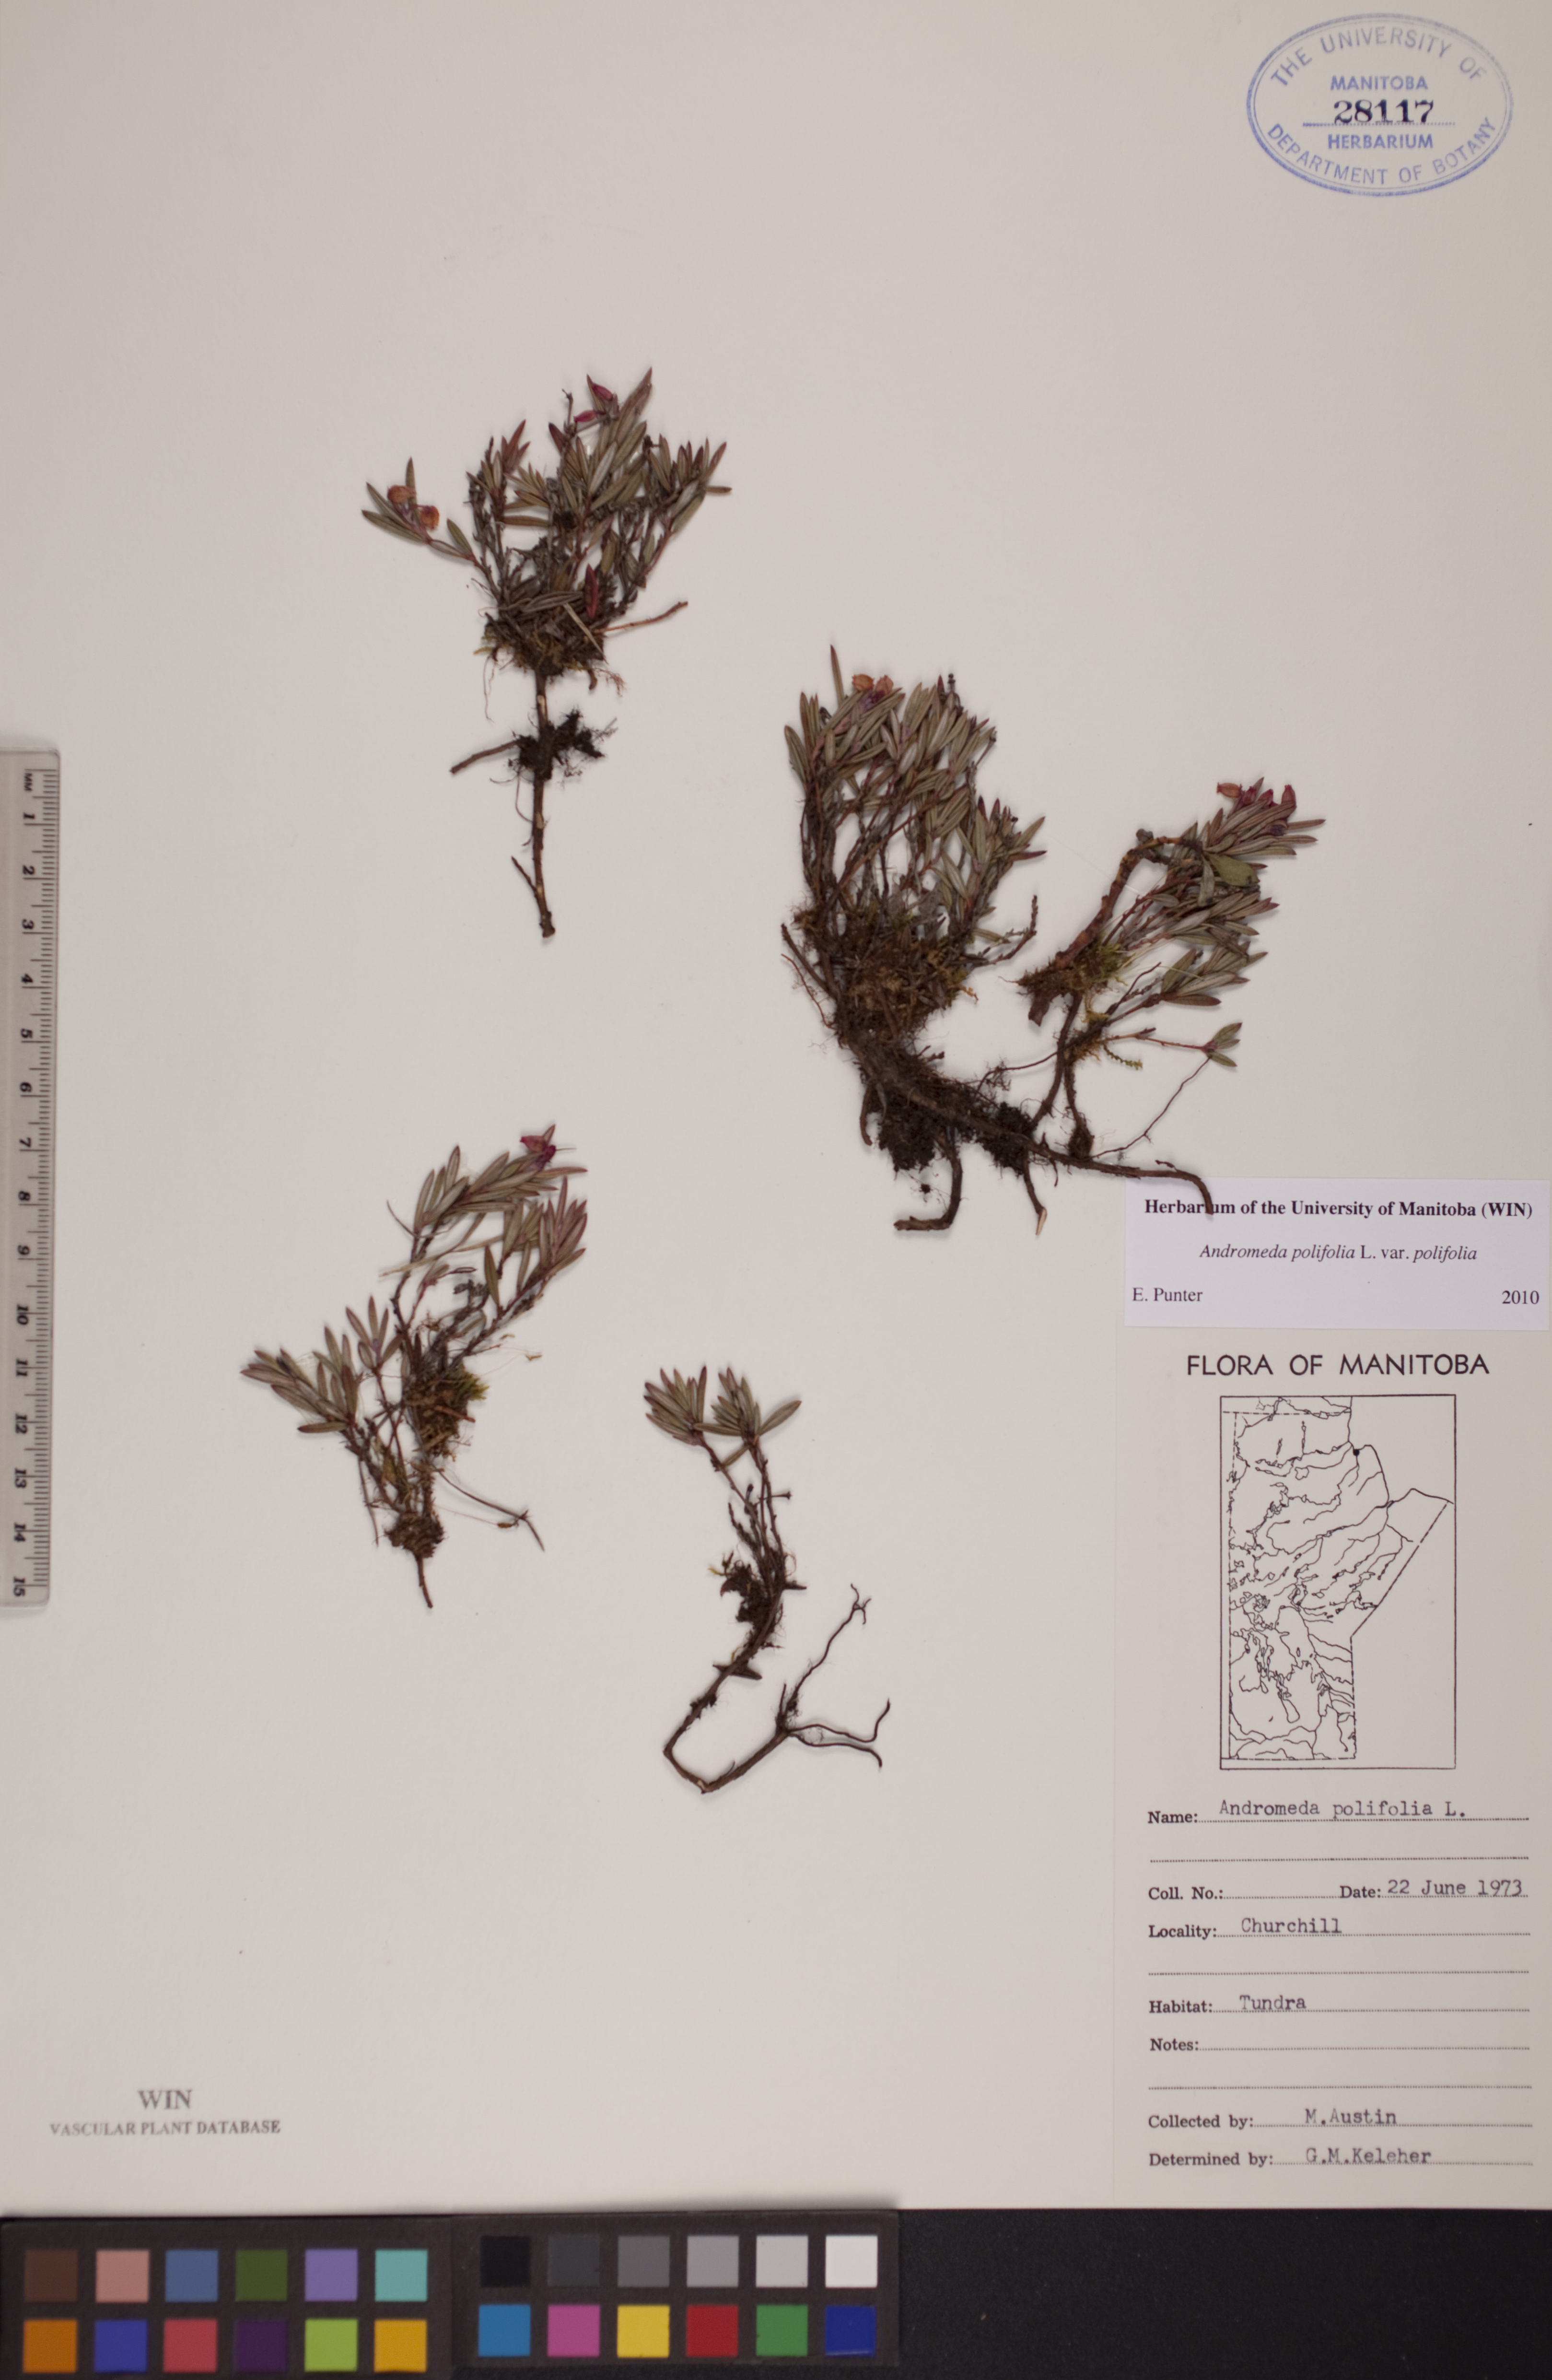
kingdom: Plantae
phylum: Tracheophyta
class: Magnoliopsida
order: Ericales
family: Ericaceae
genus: Andromeda
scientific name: Andromeda polifolia
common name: Bog-rosemary
